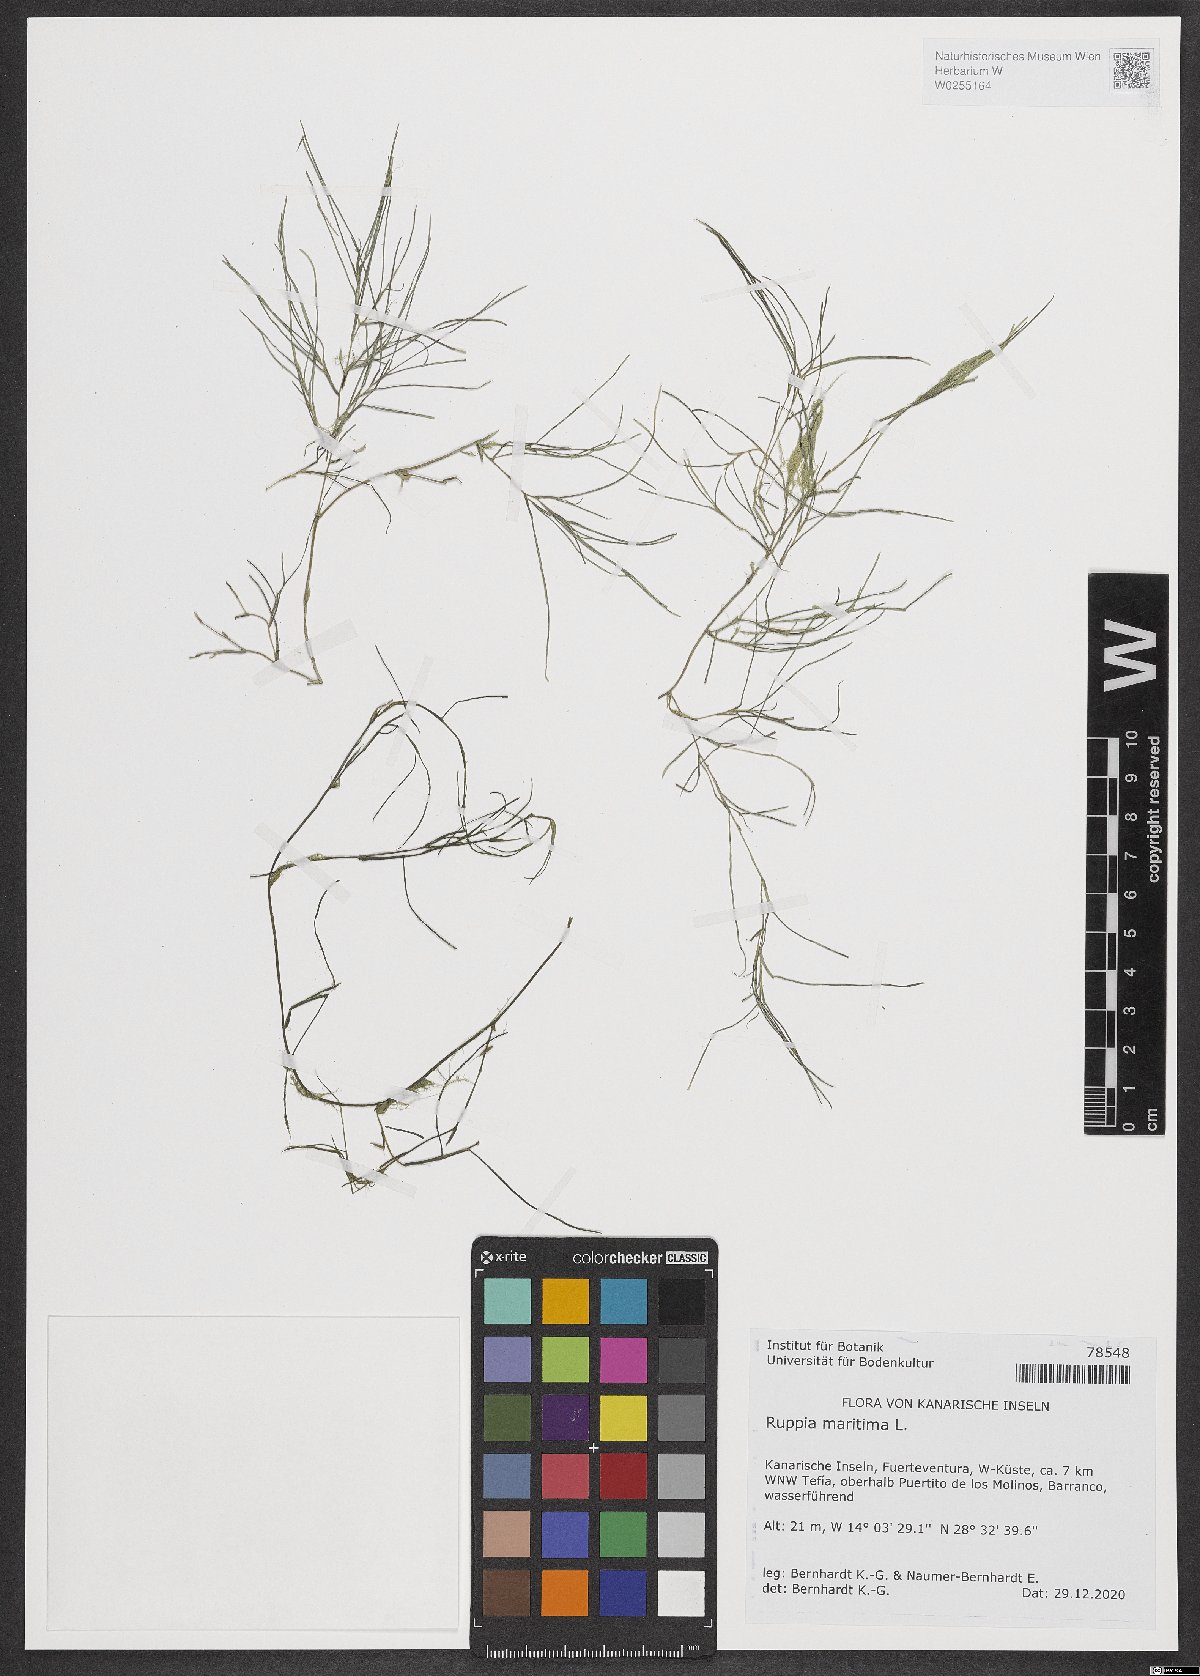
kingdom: Plantae
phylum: Tracheophyta
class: Liliopsida
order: Alismatales
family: Ruppiaceae
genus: Ruppia
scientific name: Ruppia maritima
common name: Beaked tasselweed
